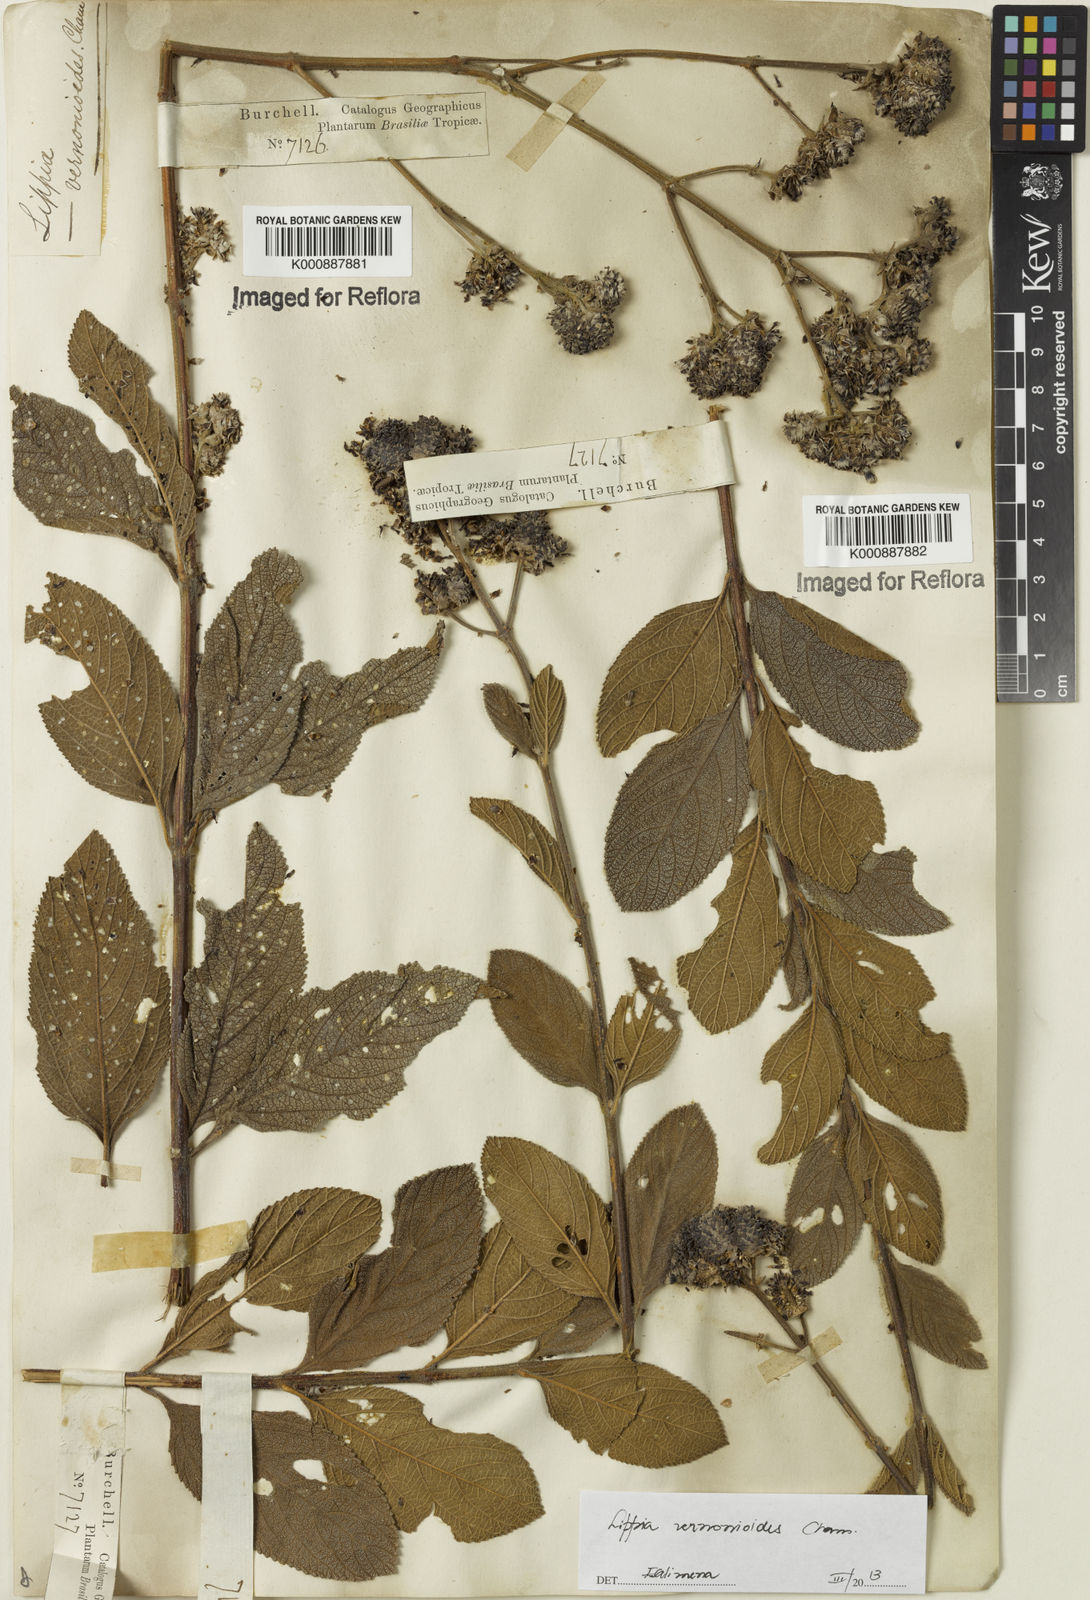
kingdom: Plantae
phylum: Tracheophyta
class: Magnoliopsida
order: Lamiales
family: Verbenaceae
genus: Lippia
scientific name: Lippia vernonioides
